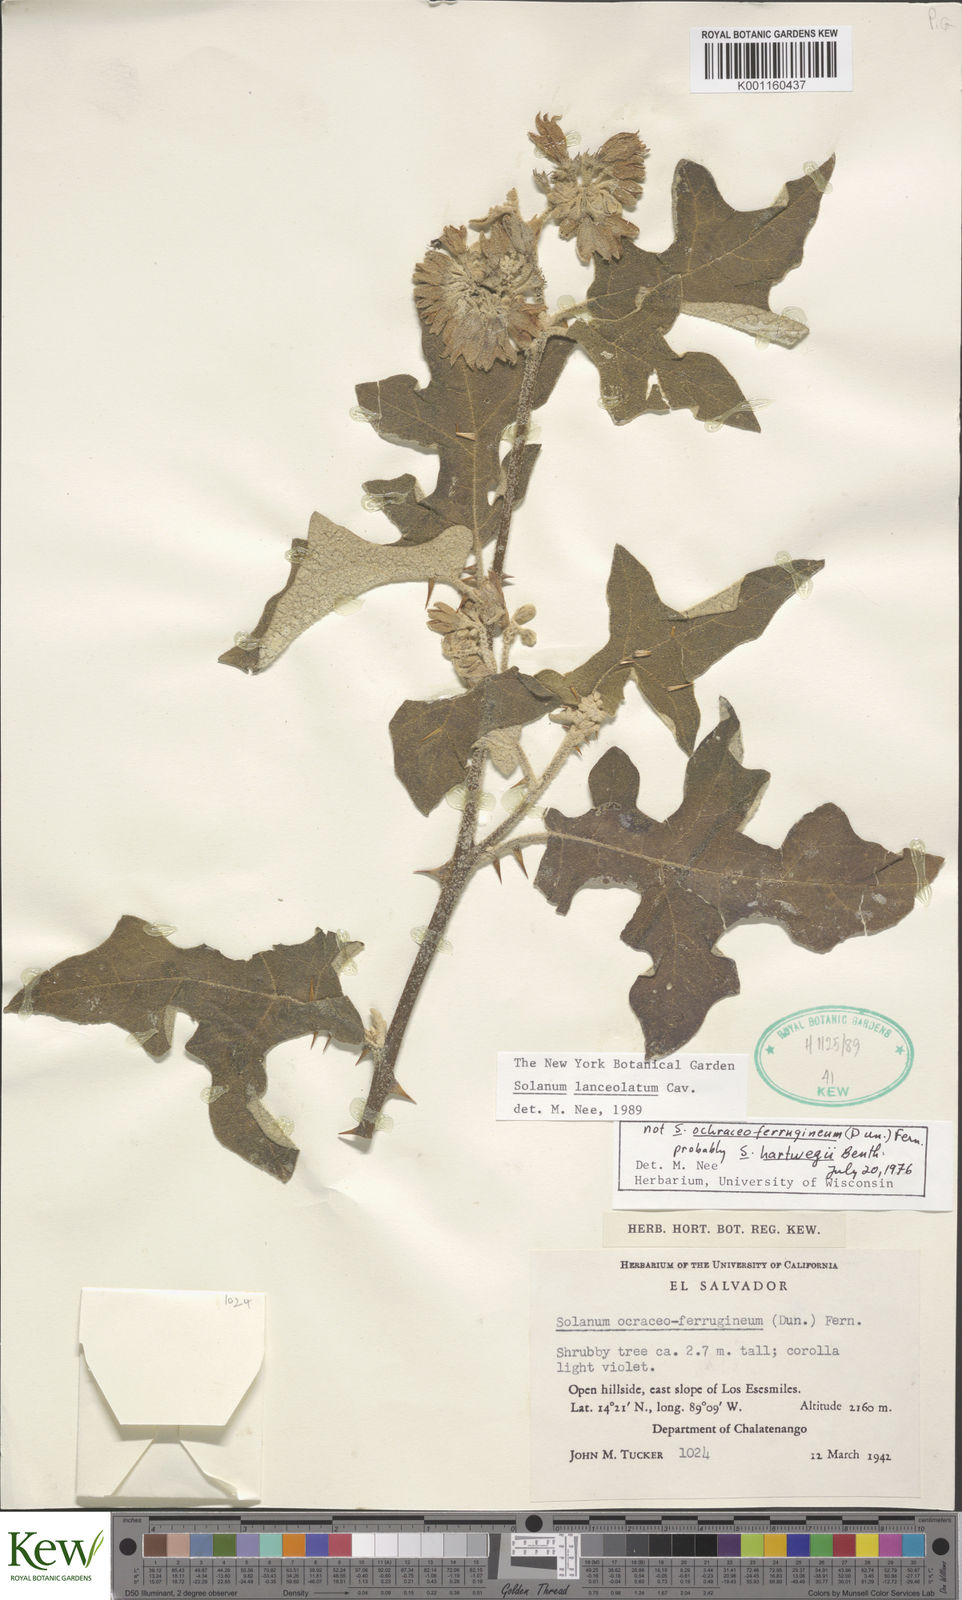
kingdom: Plantae
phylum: Tracheophyta
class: Magnoliopsida
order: Solanales
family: Solanaceae
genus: Solanum
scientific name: Solanum lanceolatum
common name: Orangeberry nightshade
